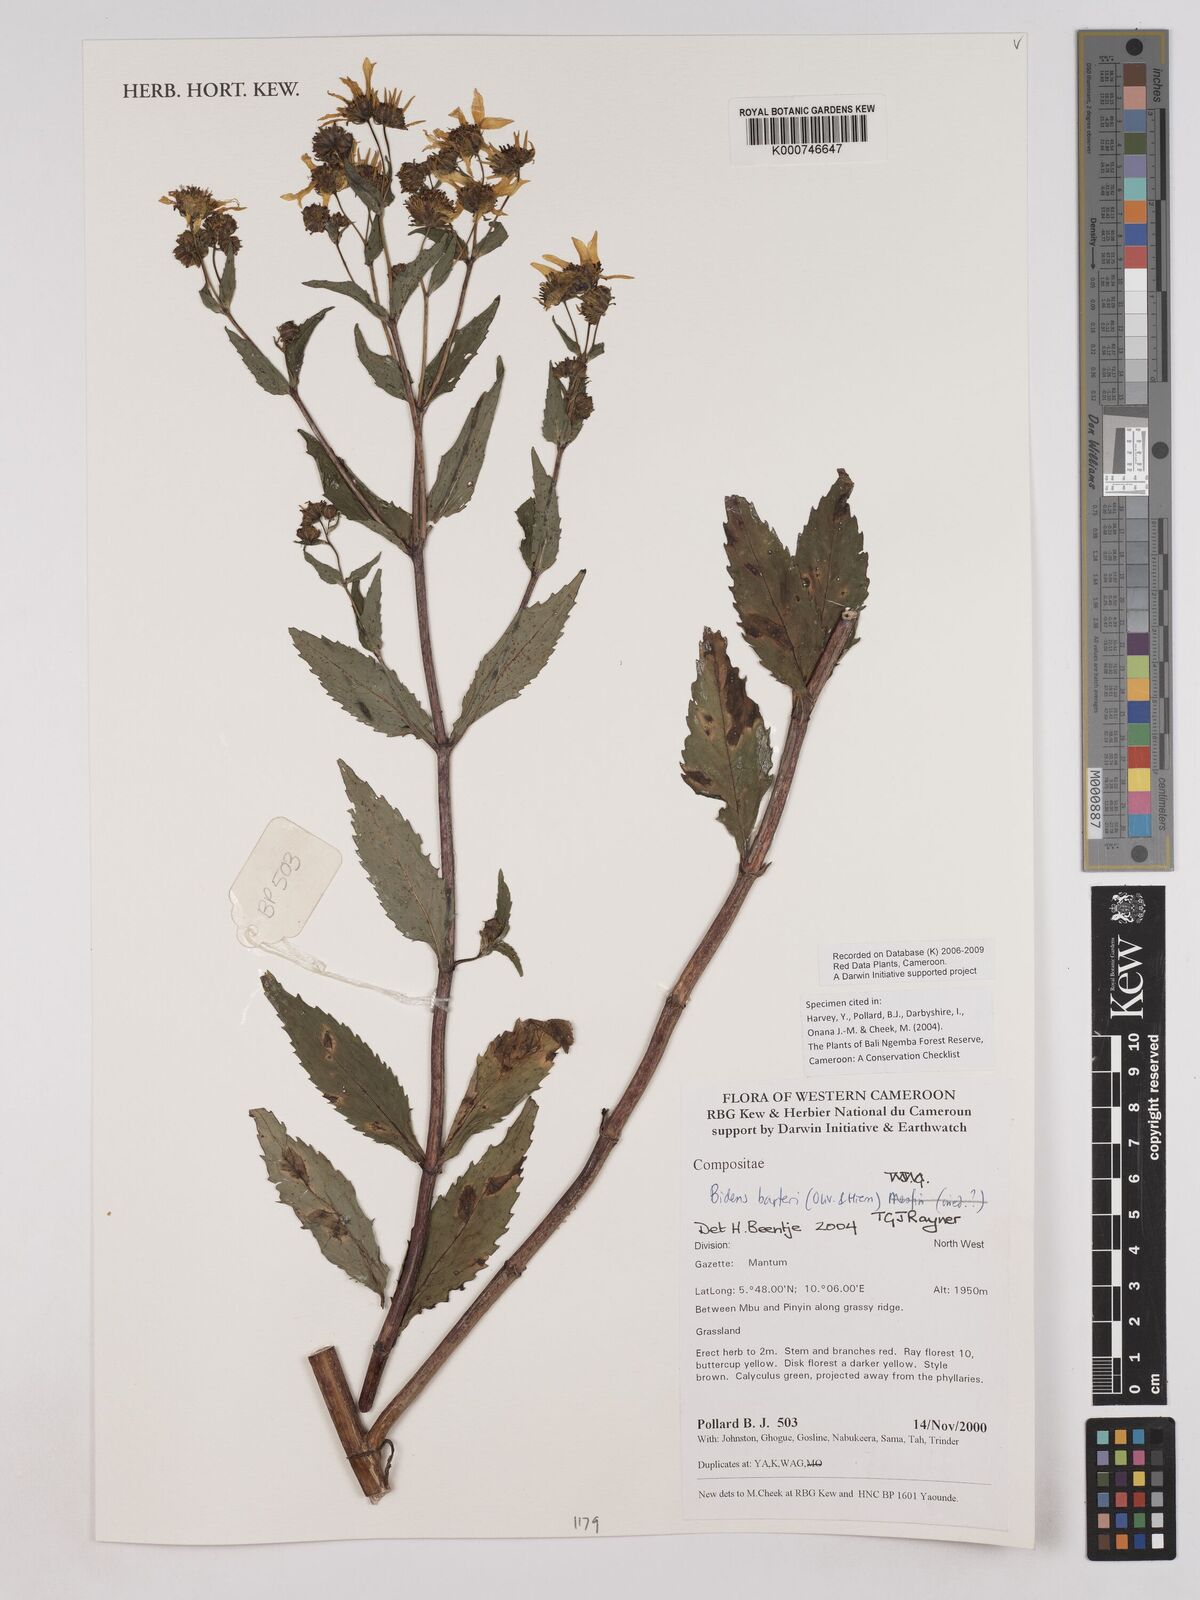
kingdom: Plantae
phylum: Tracheophyta
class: Magnoliopsida
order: Asterales
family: Asteraceae
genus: Bidens
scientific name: Bidens barteri
